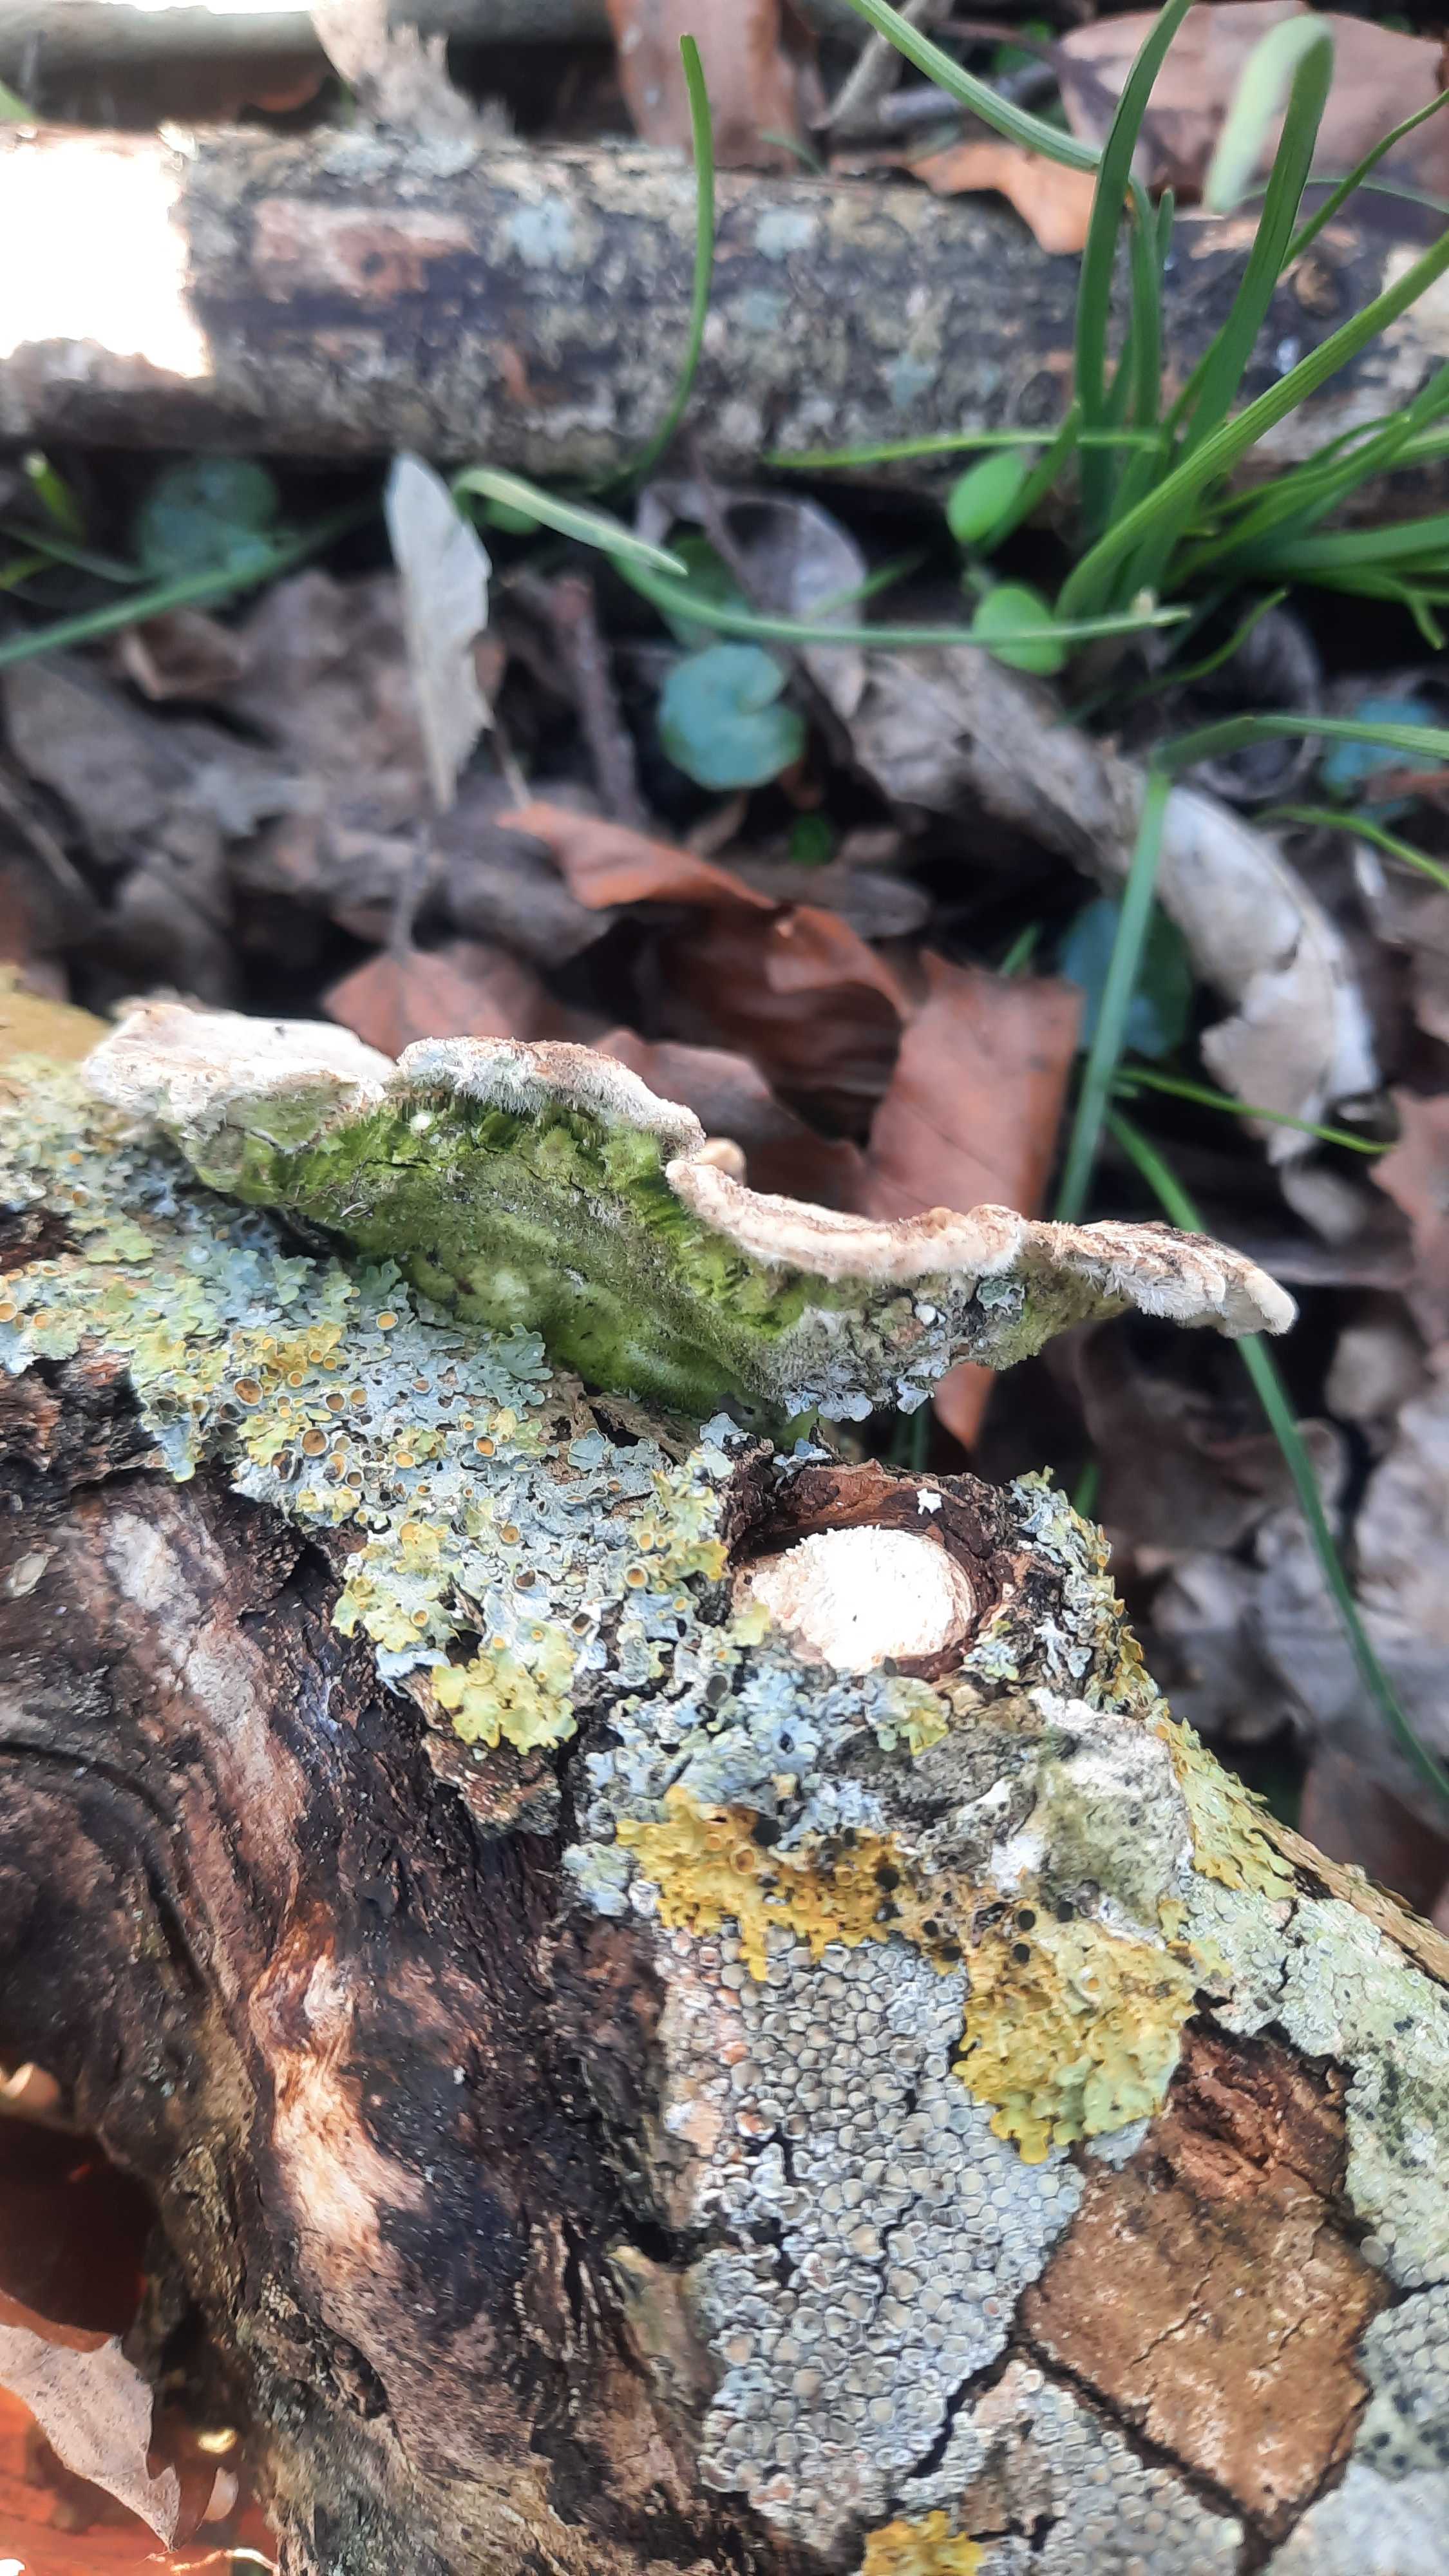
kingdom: Fungi
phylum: Basidiomycota
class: Agaricomycetes
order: Polyporales
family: Polyporaceae
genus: Trametes
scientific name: Trametes hirsuta
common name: håret læderporesvamp
